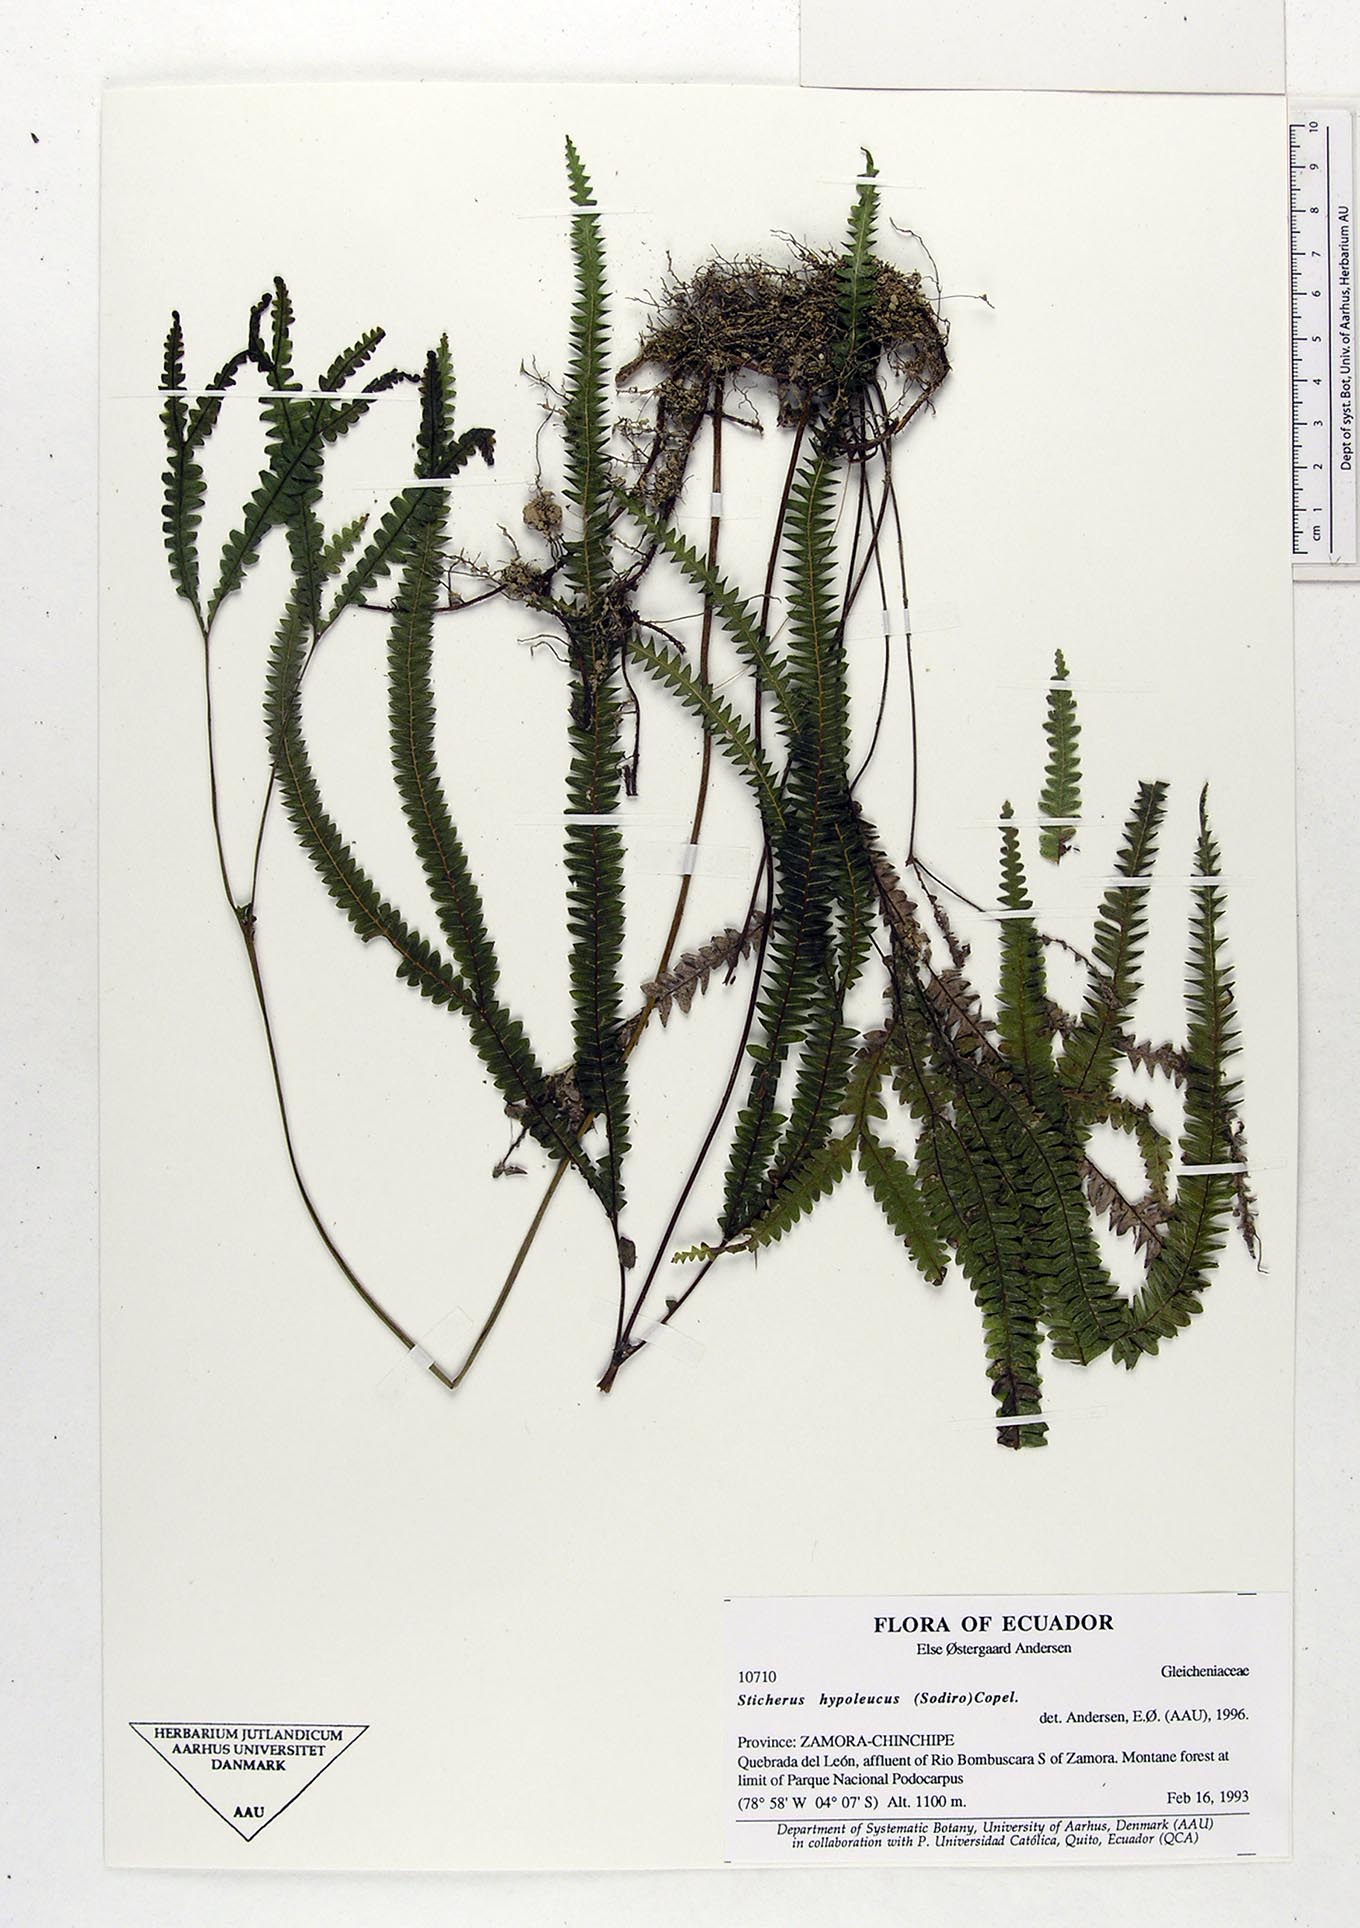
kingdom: Plantae
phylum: Tracheophyta
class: Polypodiopsida
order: Gleicheniales
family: Gleicheniaceae
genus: Sticherus
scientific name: Sticherus hypoleucus
